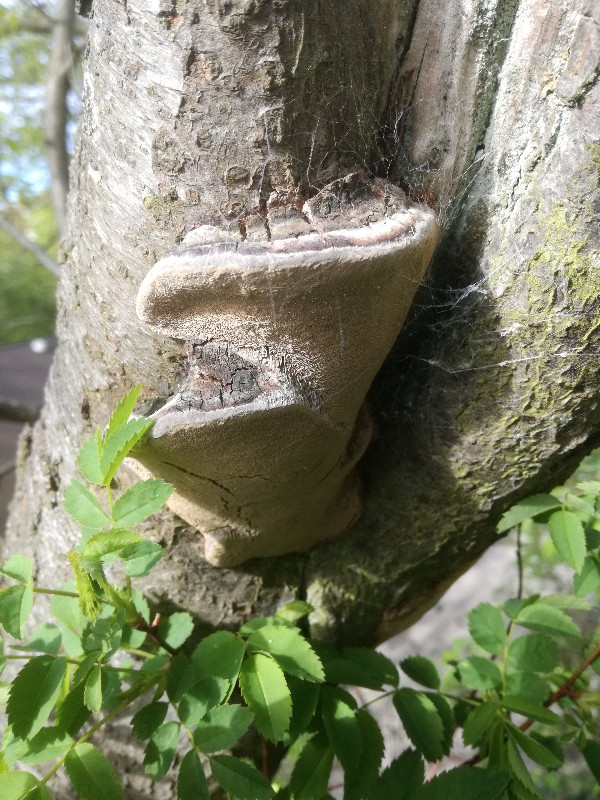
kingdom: Fungi
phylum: Basidiomycota
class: Agaricomycetes
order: Hymenochaetales
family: Hymenochaetaceae
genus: Phellinus
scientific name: Phellinus pomaceus
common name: blomme-ildporesvamp
